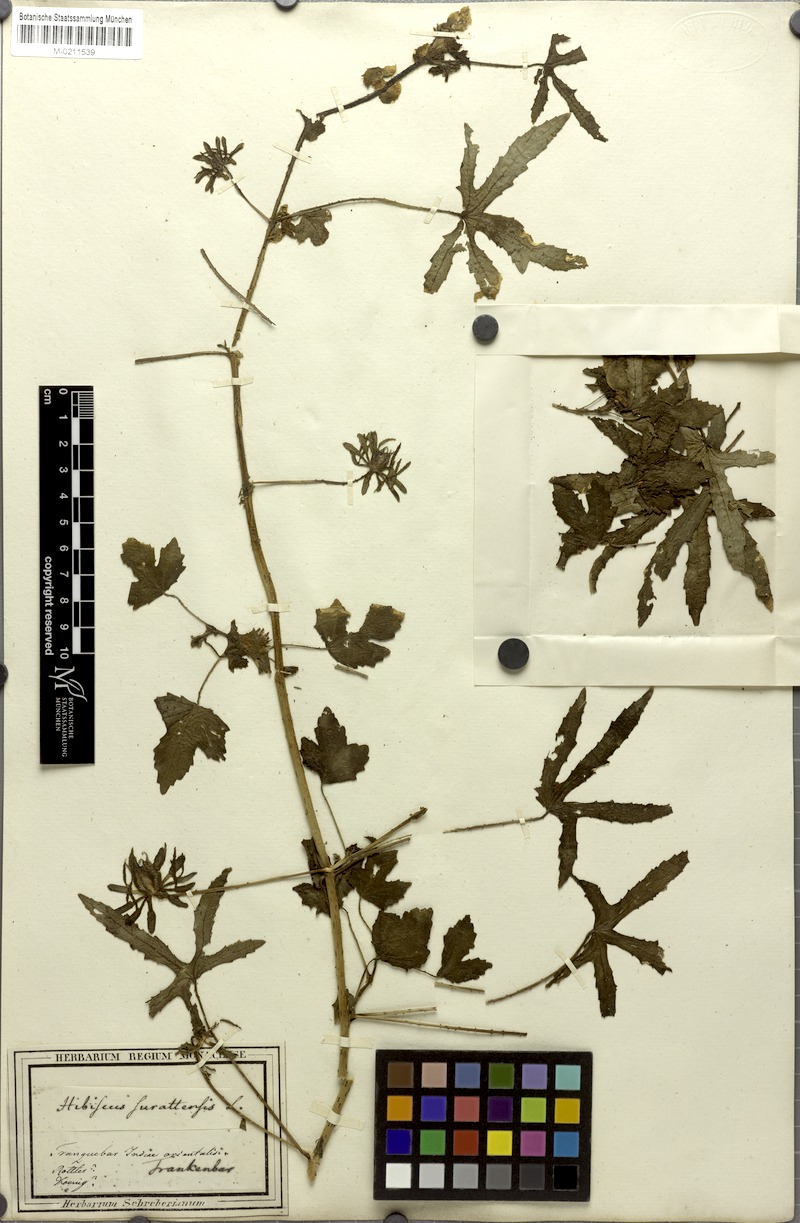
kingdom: Plantae
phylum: Tracheophyta
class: Magnoliopsida
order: Malvales
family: Malvaceae
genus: Hibiscus
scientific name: Hibiscus surattensis
